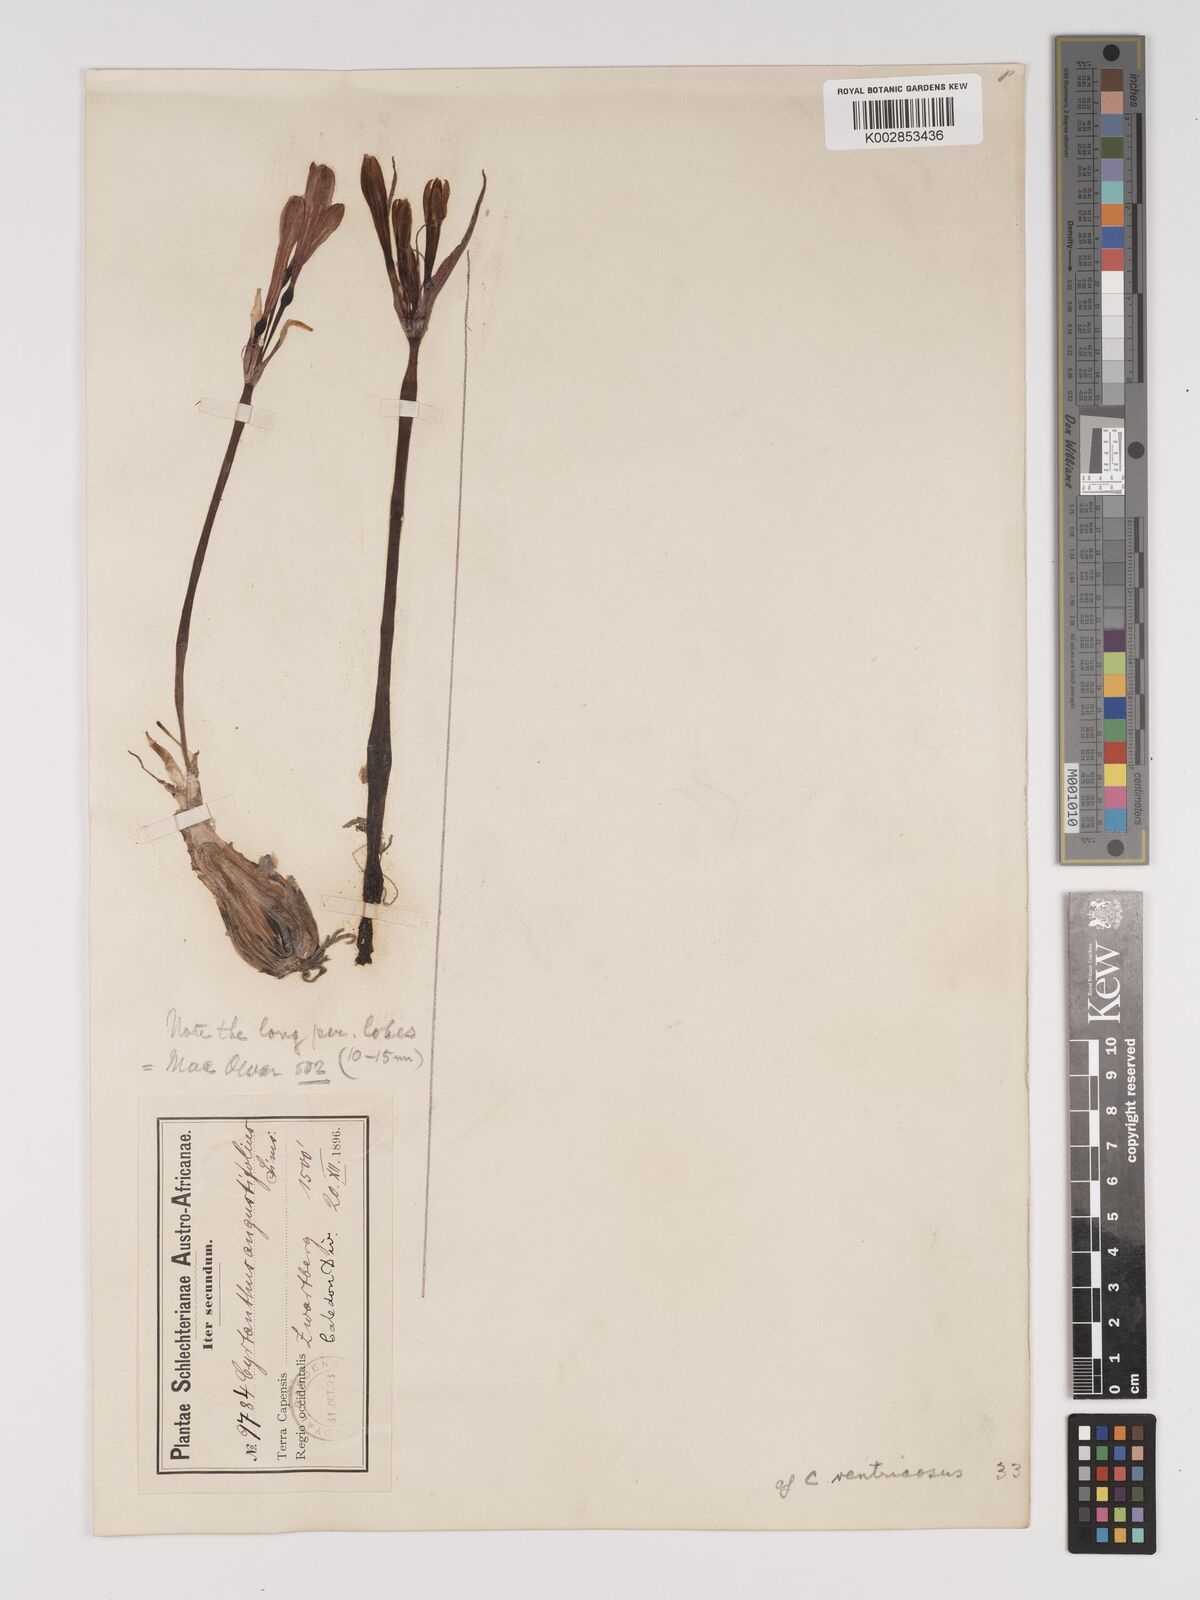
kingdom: Plantae
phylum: Tracheophyta
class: Liliopsida
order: Asparagales
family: Amaryllidaceae
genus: Cyrtanthus
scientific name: Cyrtanthus ventricosus
